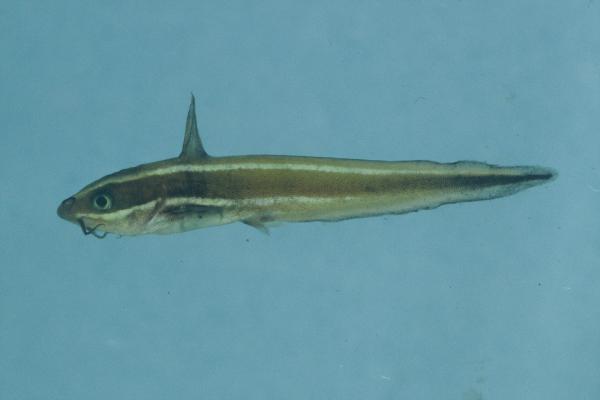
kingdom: Animalia
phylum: Chordata
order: Siluriformes
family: Plotosidae
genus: Plotosus
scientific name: Plotosus lineatus
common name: Striped eel catfish
